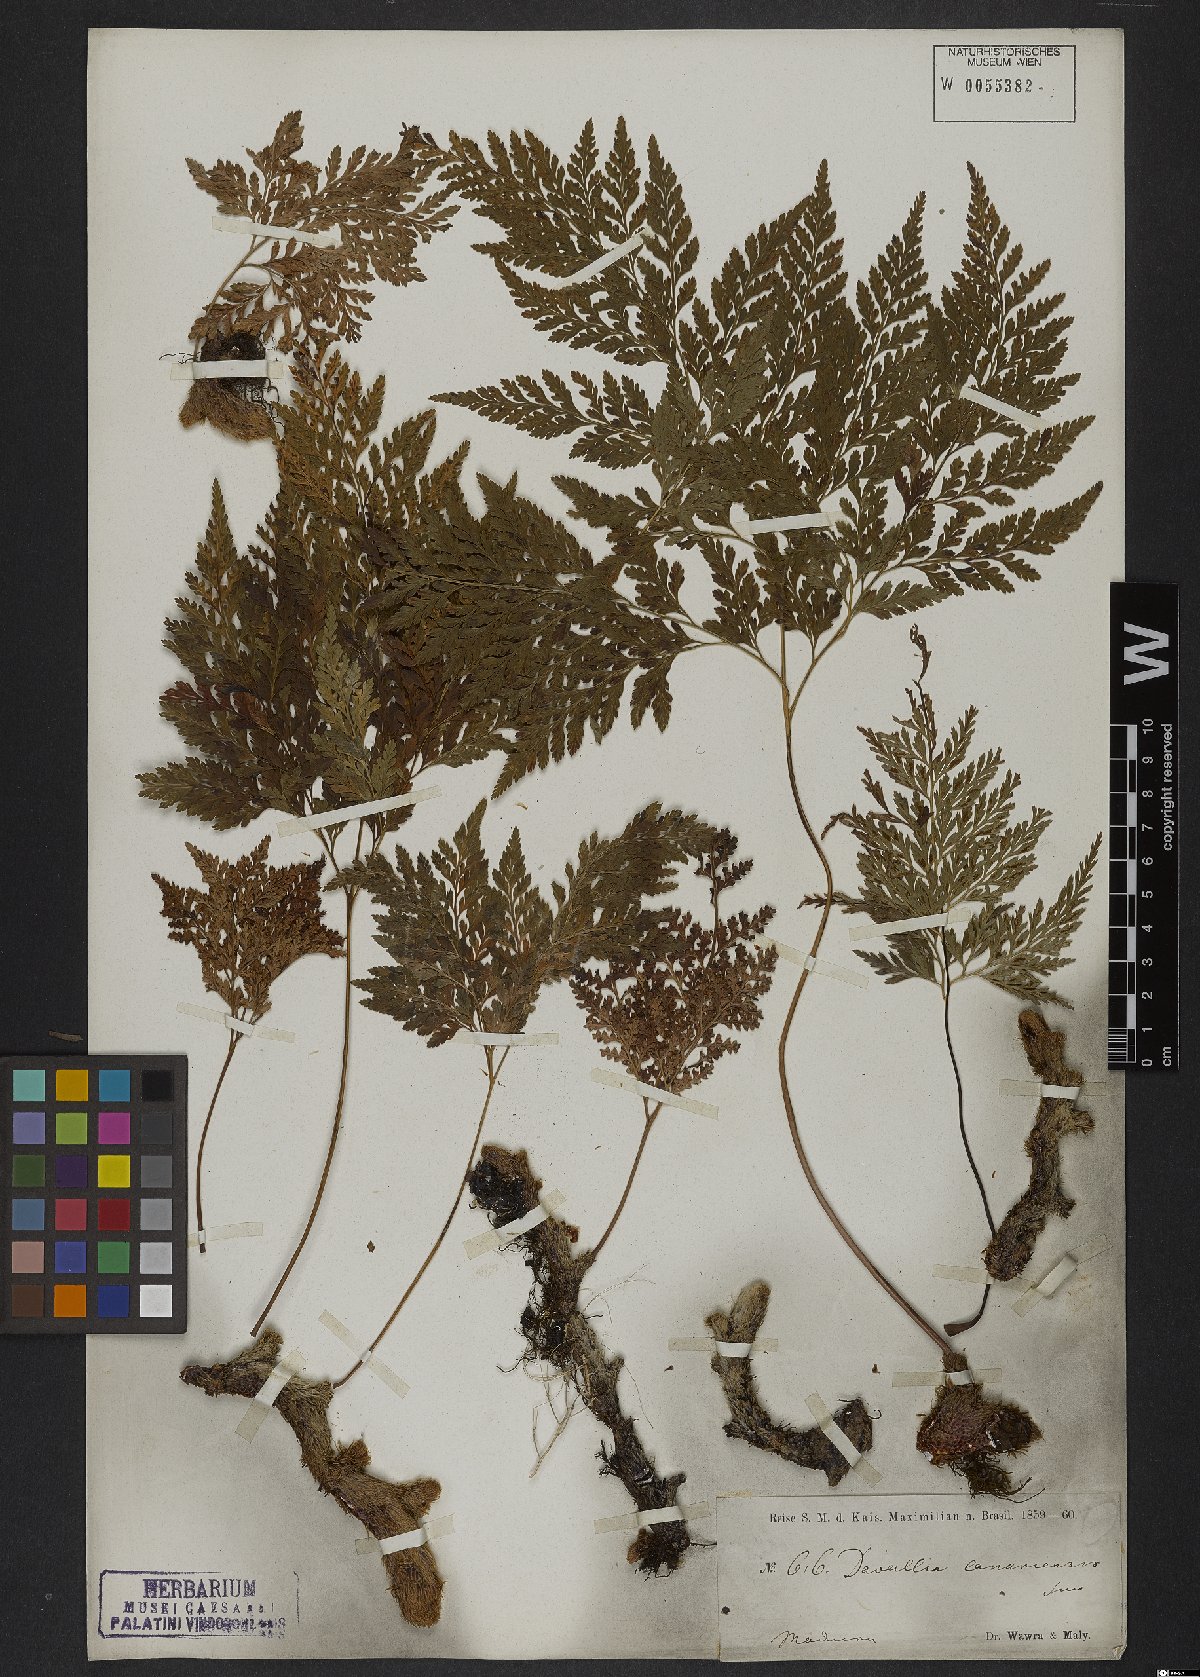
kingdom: Plantae
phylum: Tracheophyta
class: Polypodiopsida
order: Polypodiales
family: Davalliaceae
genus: Davallia
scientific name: Davallia canariensis
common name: Hare's-foot fern
